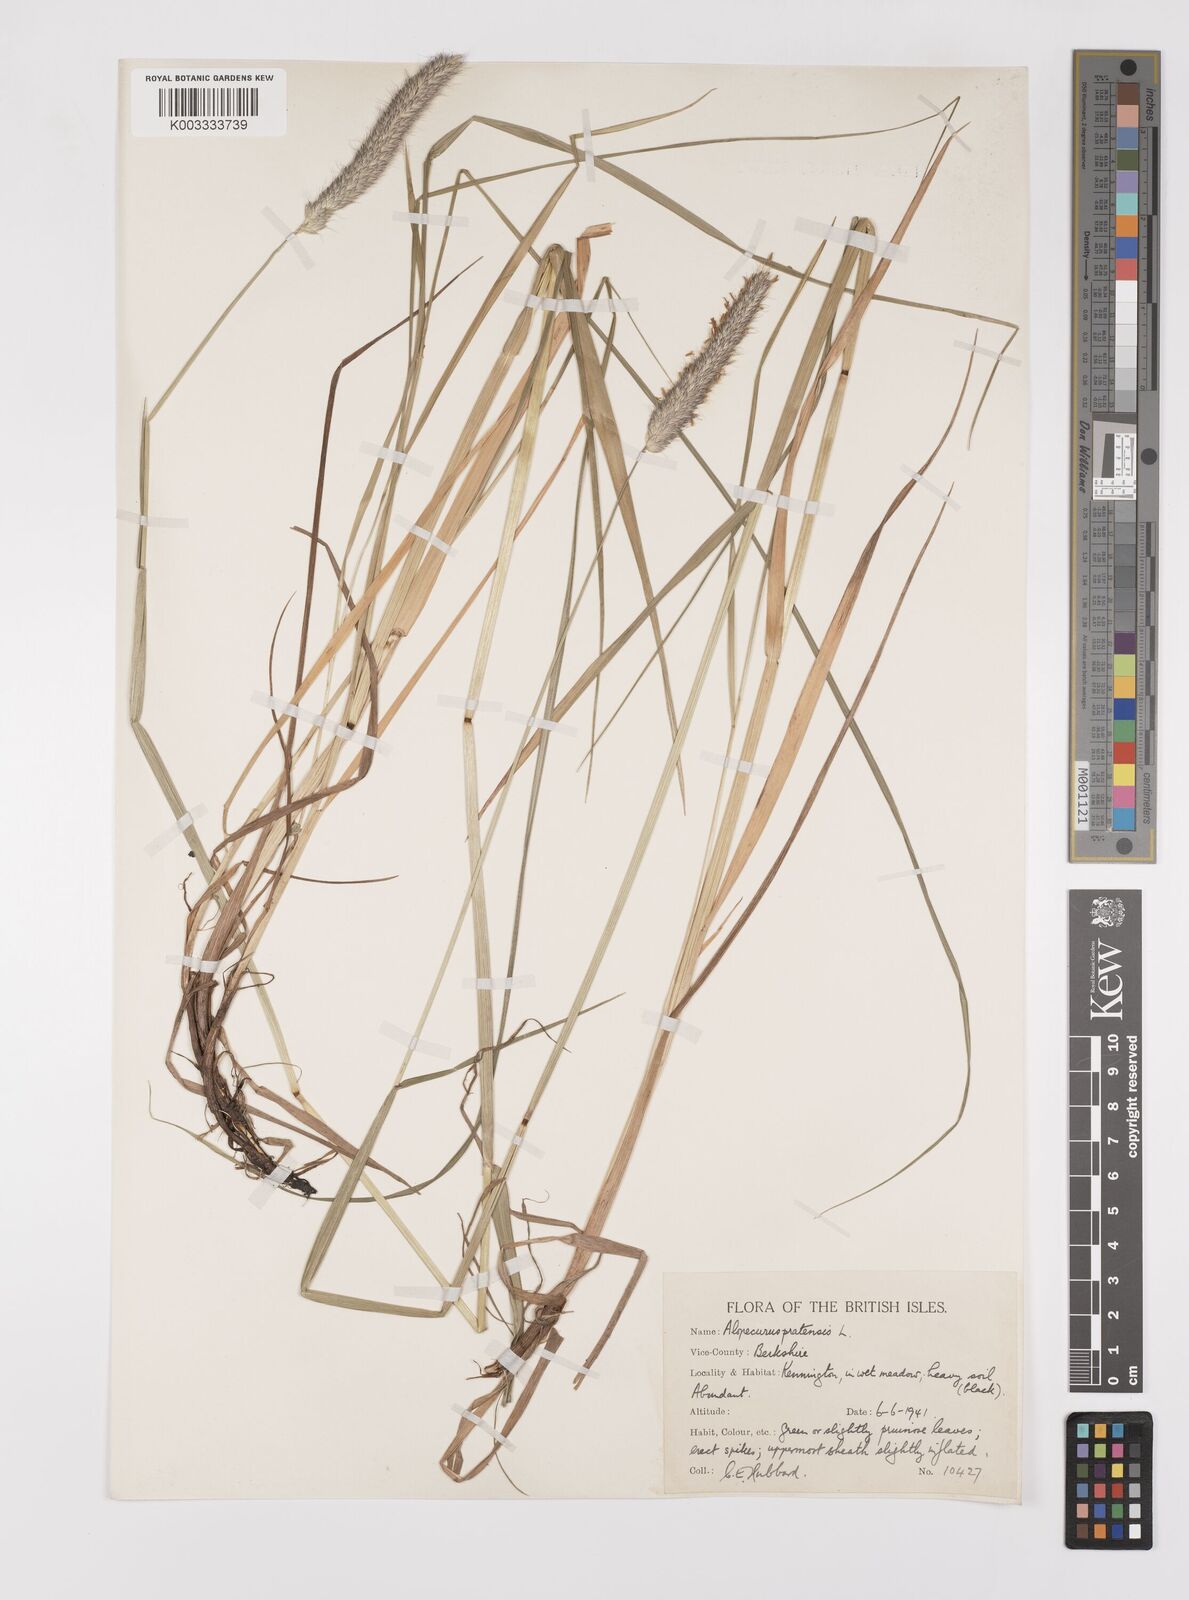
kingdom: Plantae
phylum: Tracheophyta
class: Liliopsida
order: Poales
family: Poaceae
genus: Alopecurus
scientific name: Alopecurus pratensis
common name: Meadow foxtail
